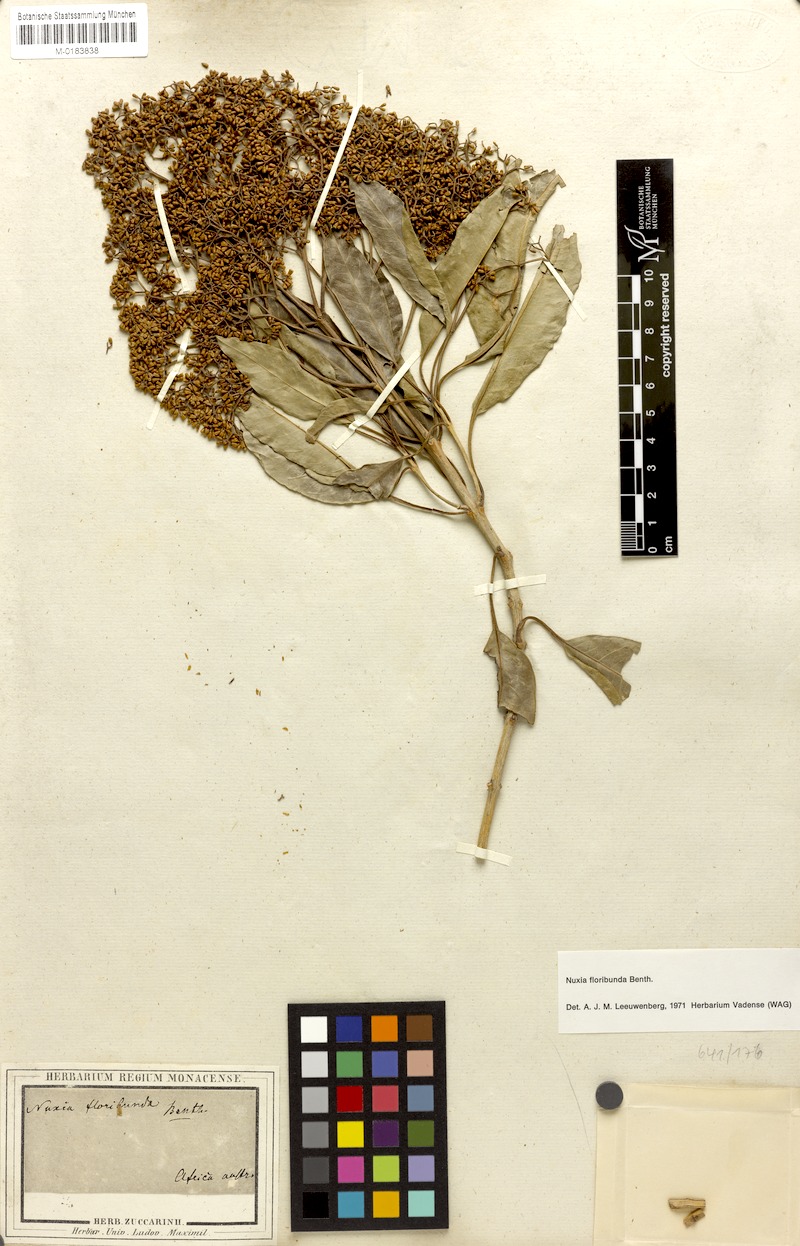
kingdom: Plantae
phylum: Tracheophyta
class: Magnoliopsida
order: Lamiales
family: Stilbaceae
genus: Nuxia
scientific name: Nuxia floribunda
